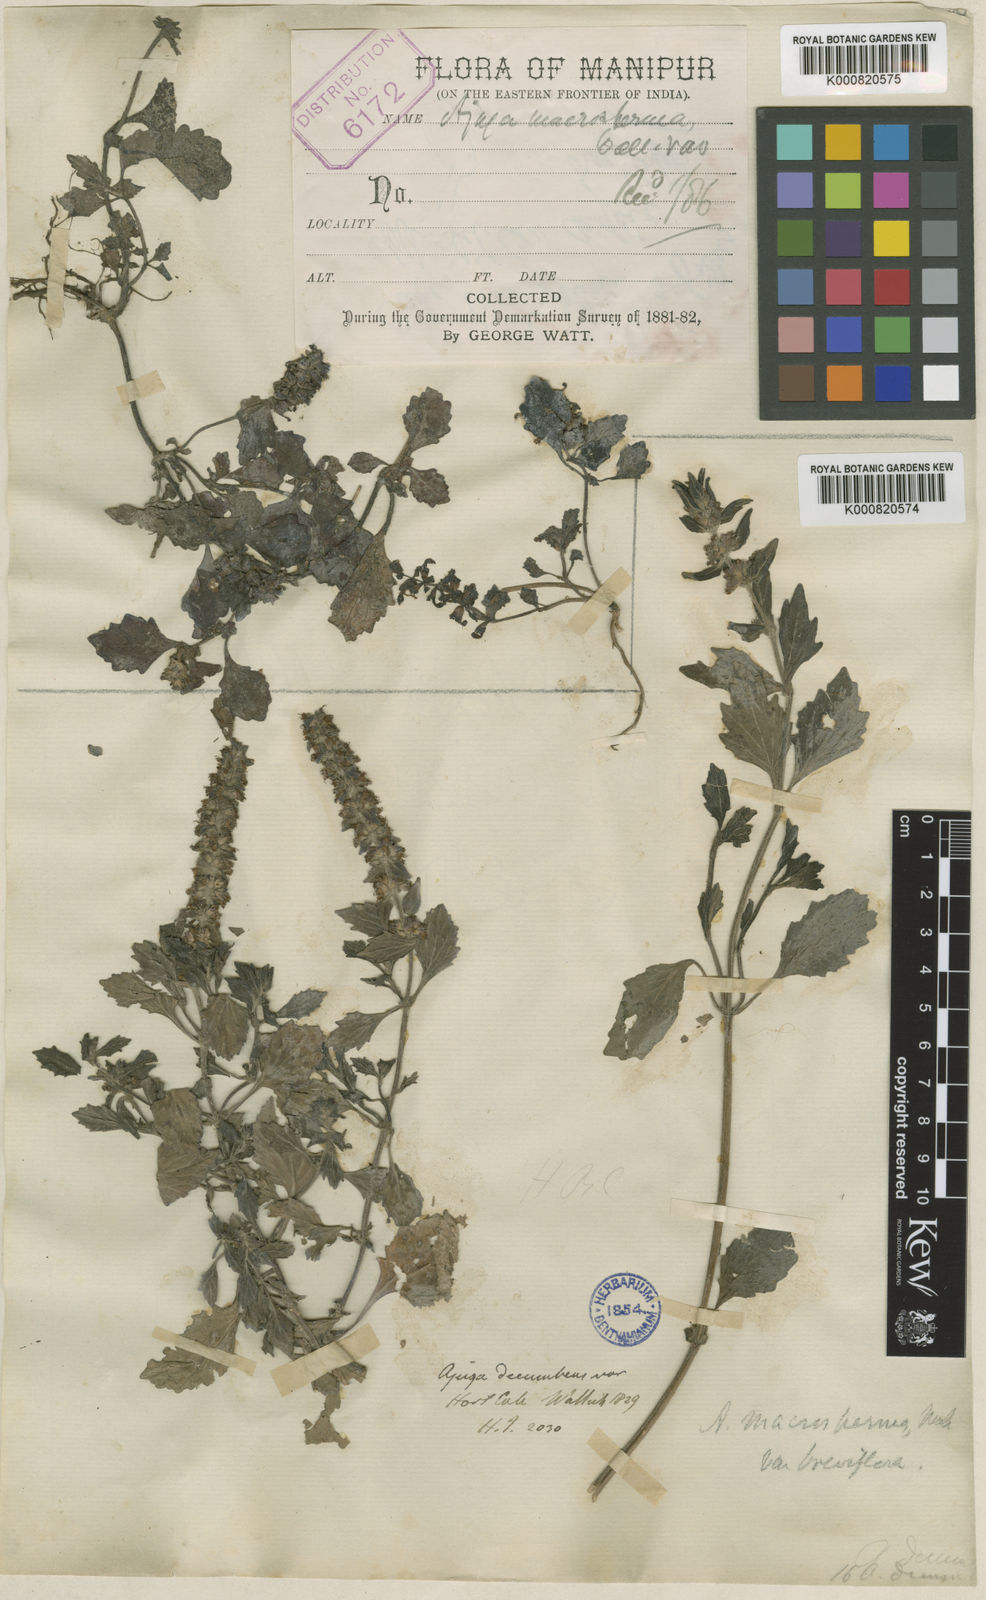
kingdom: Plantae
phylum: Tracheophyta
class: Magnoliopsida
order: Lamiales
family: Lamiaceae
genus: Ajuga
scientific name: Ajuga macrosperma
